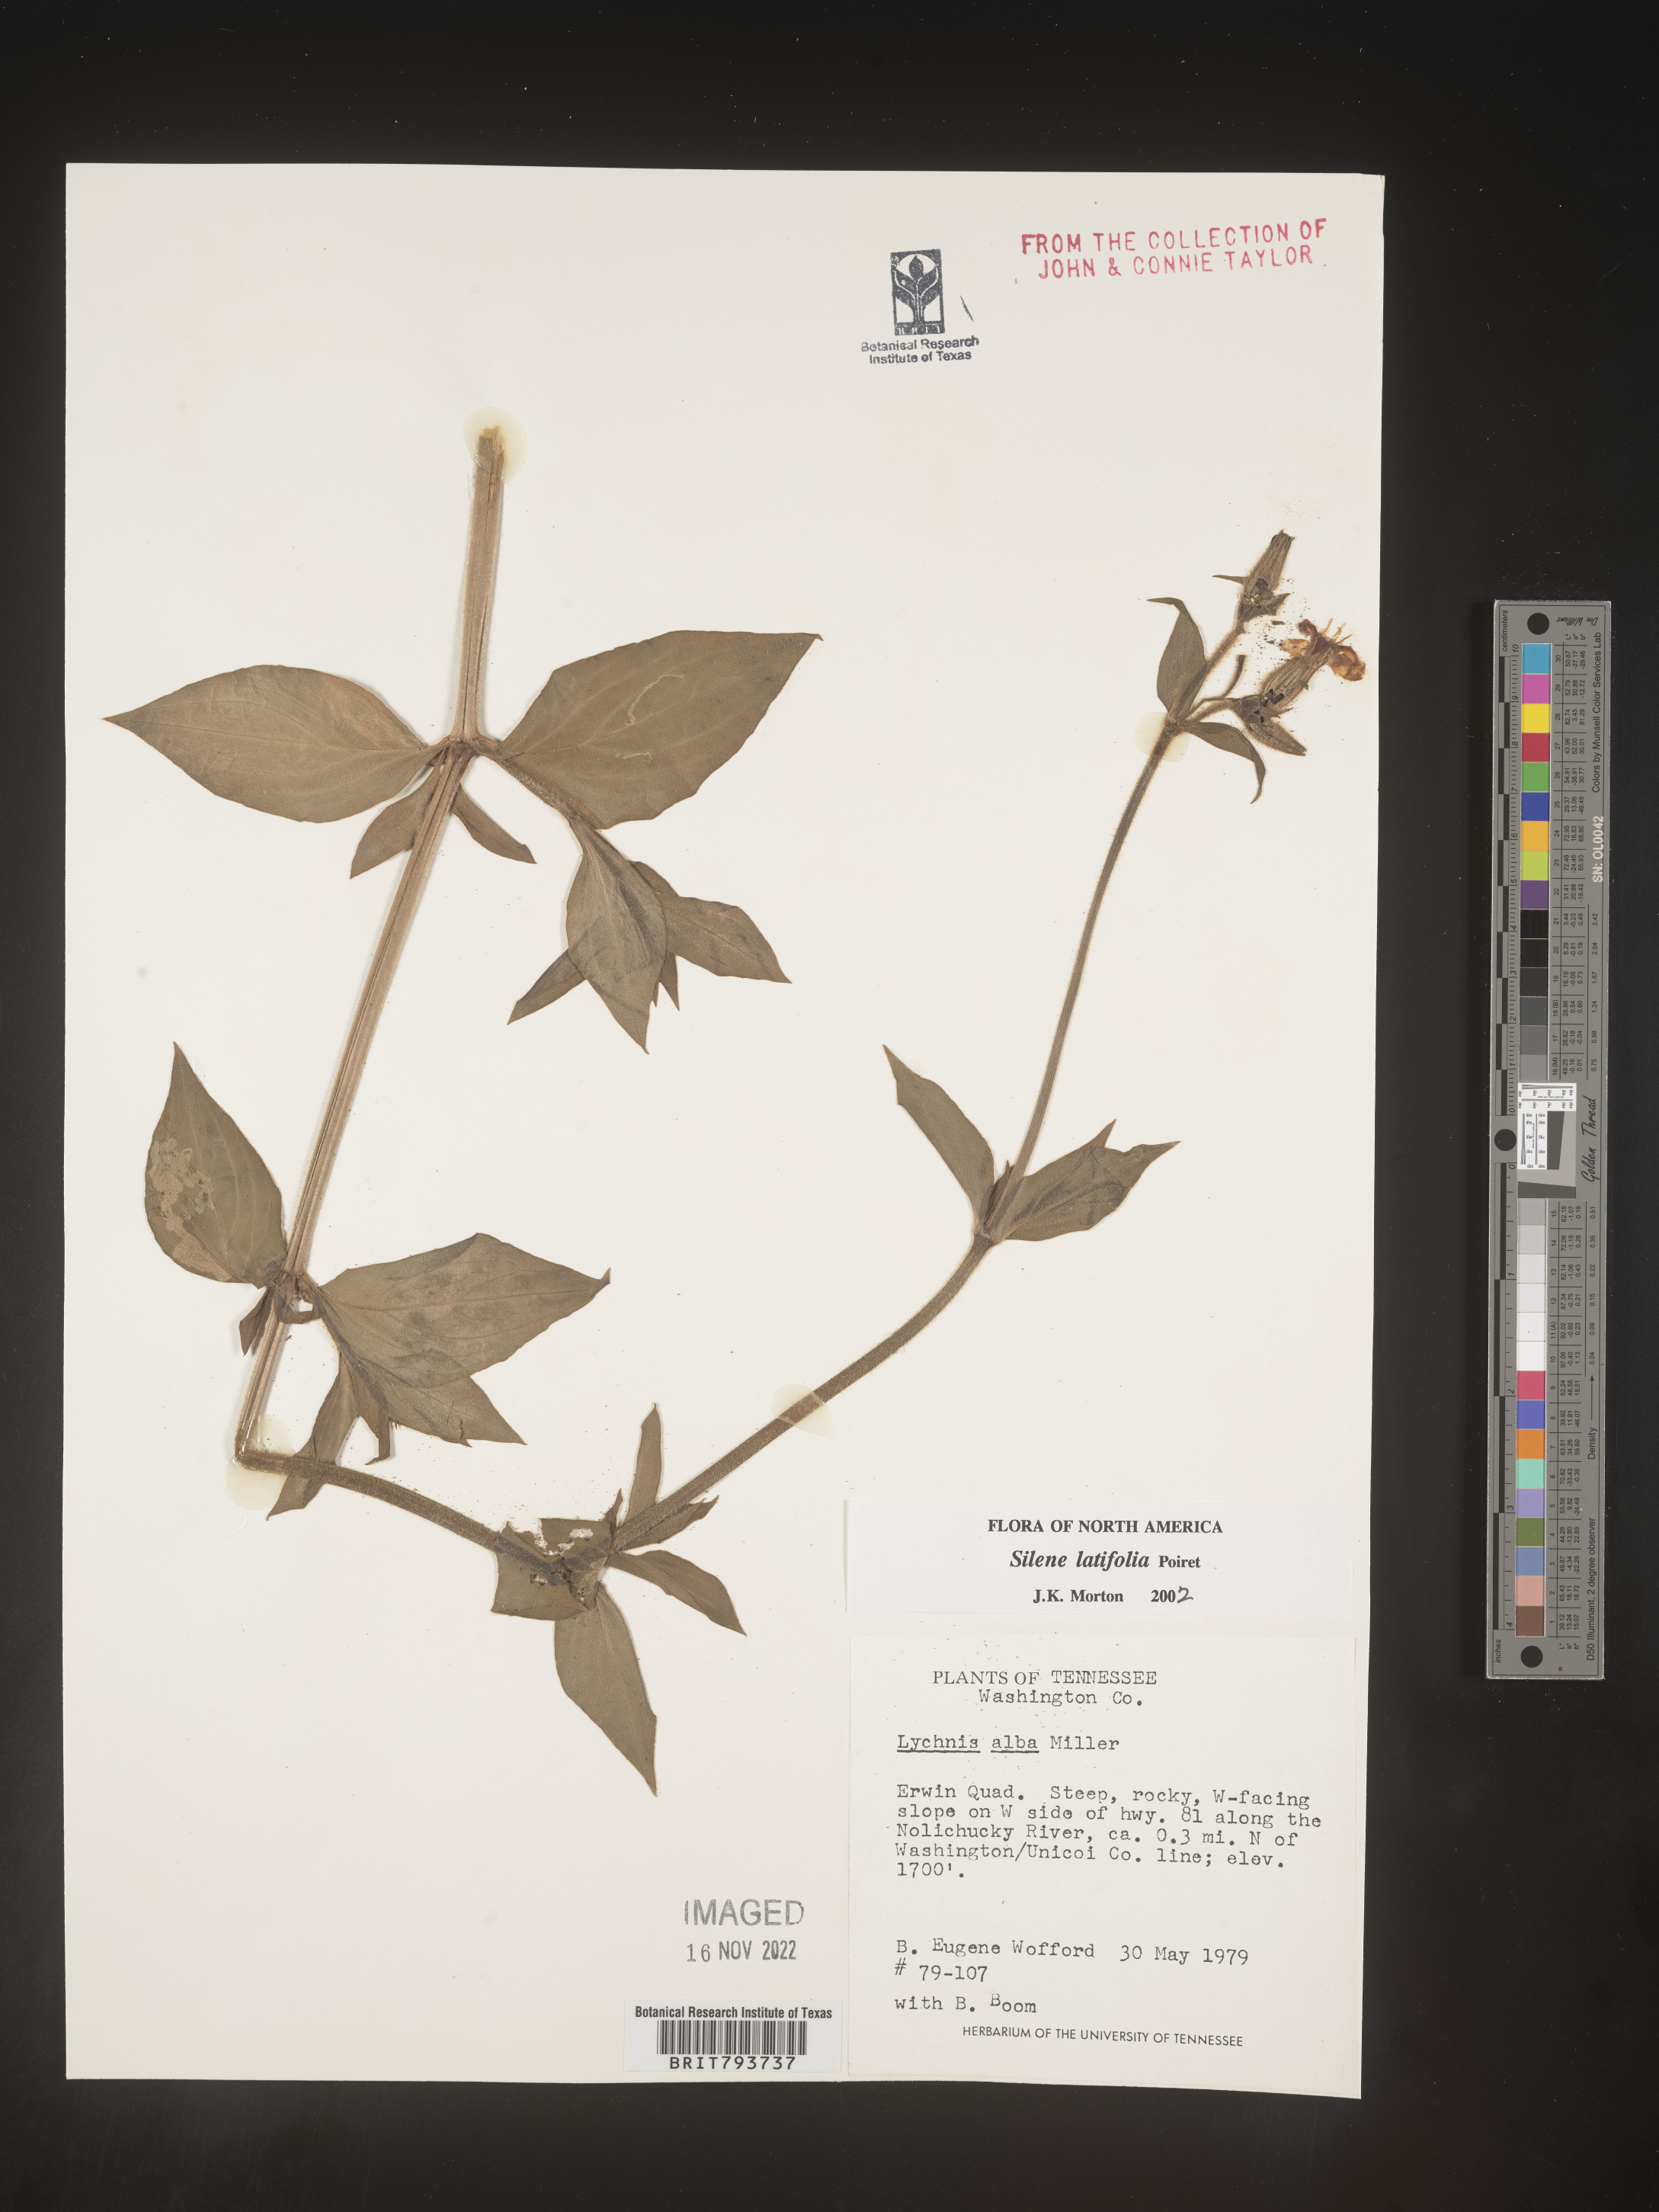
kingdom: Plantae
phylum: Tracheophyta
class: Magnoliopsida
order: Caryophyllales
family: Caryophyllaceae
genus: Silene
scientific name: Silene latifolia
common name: White campion
